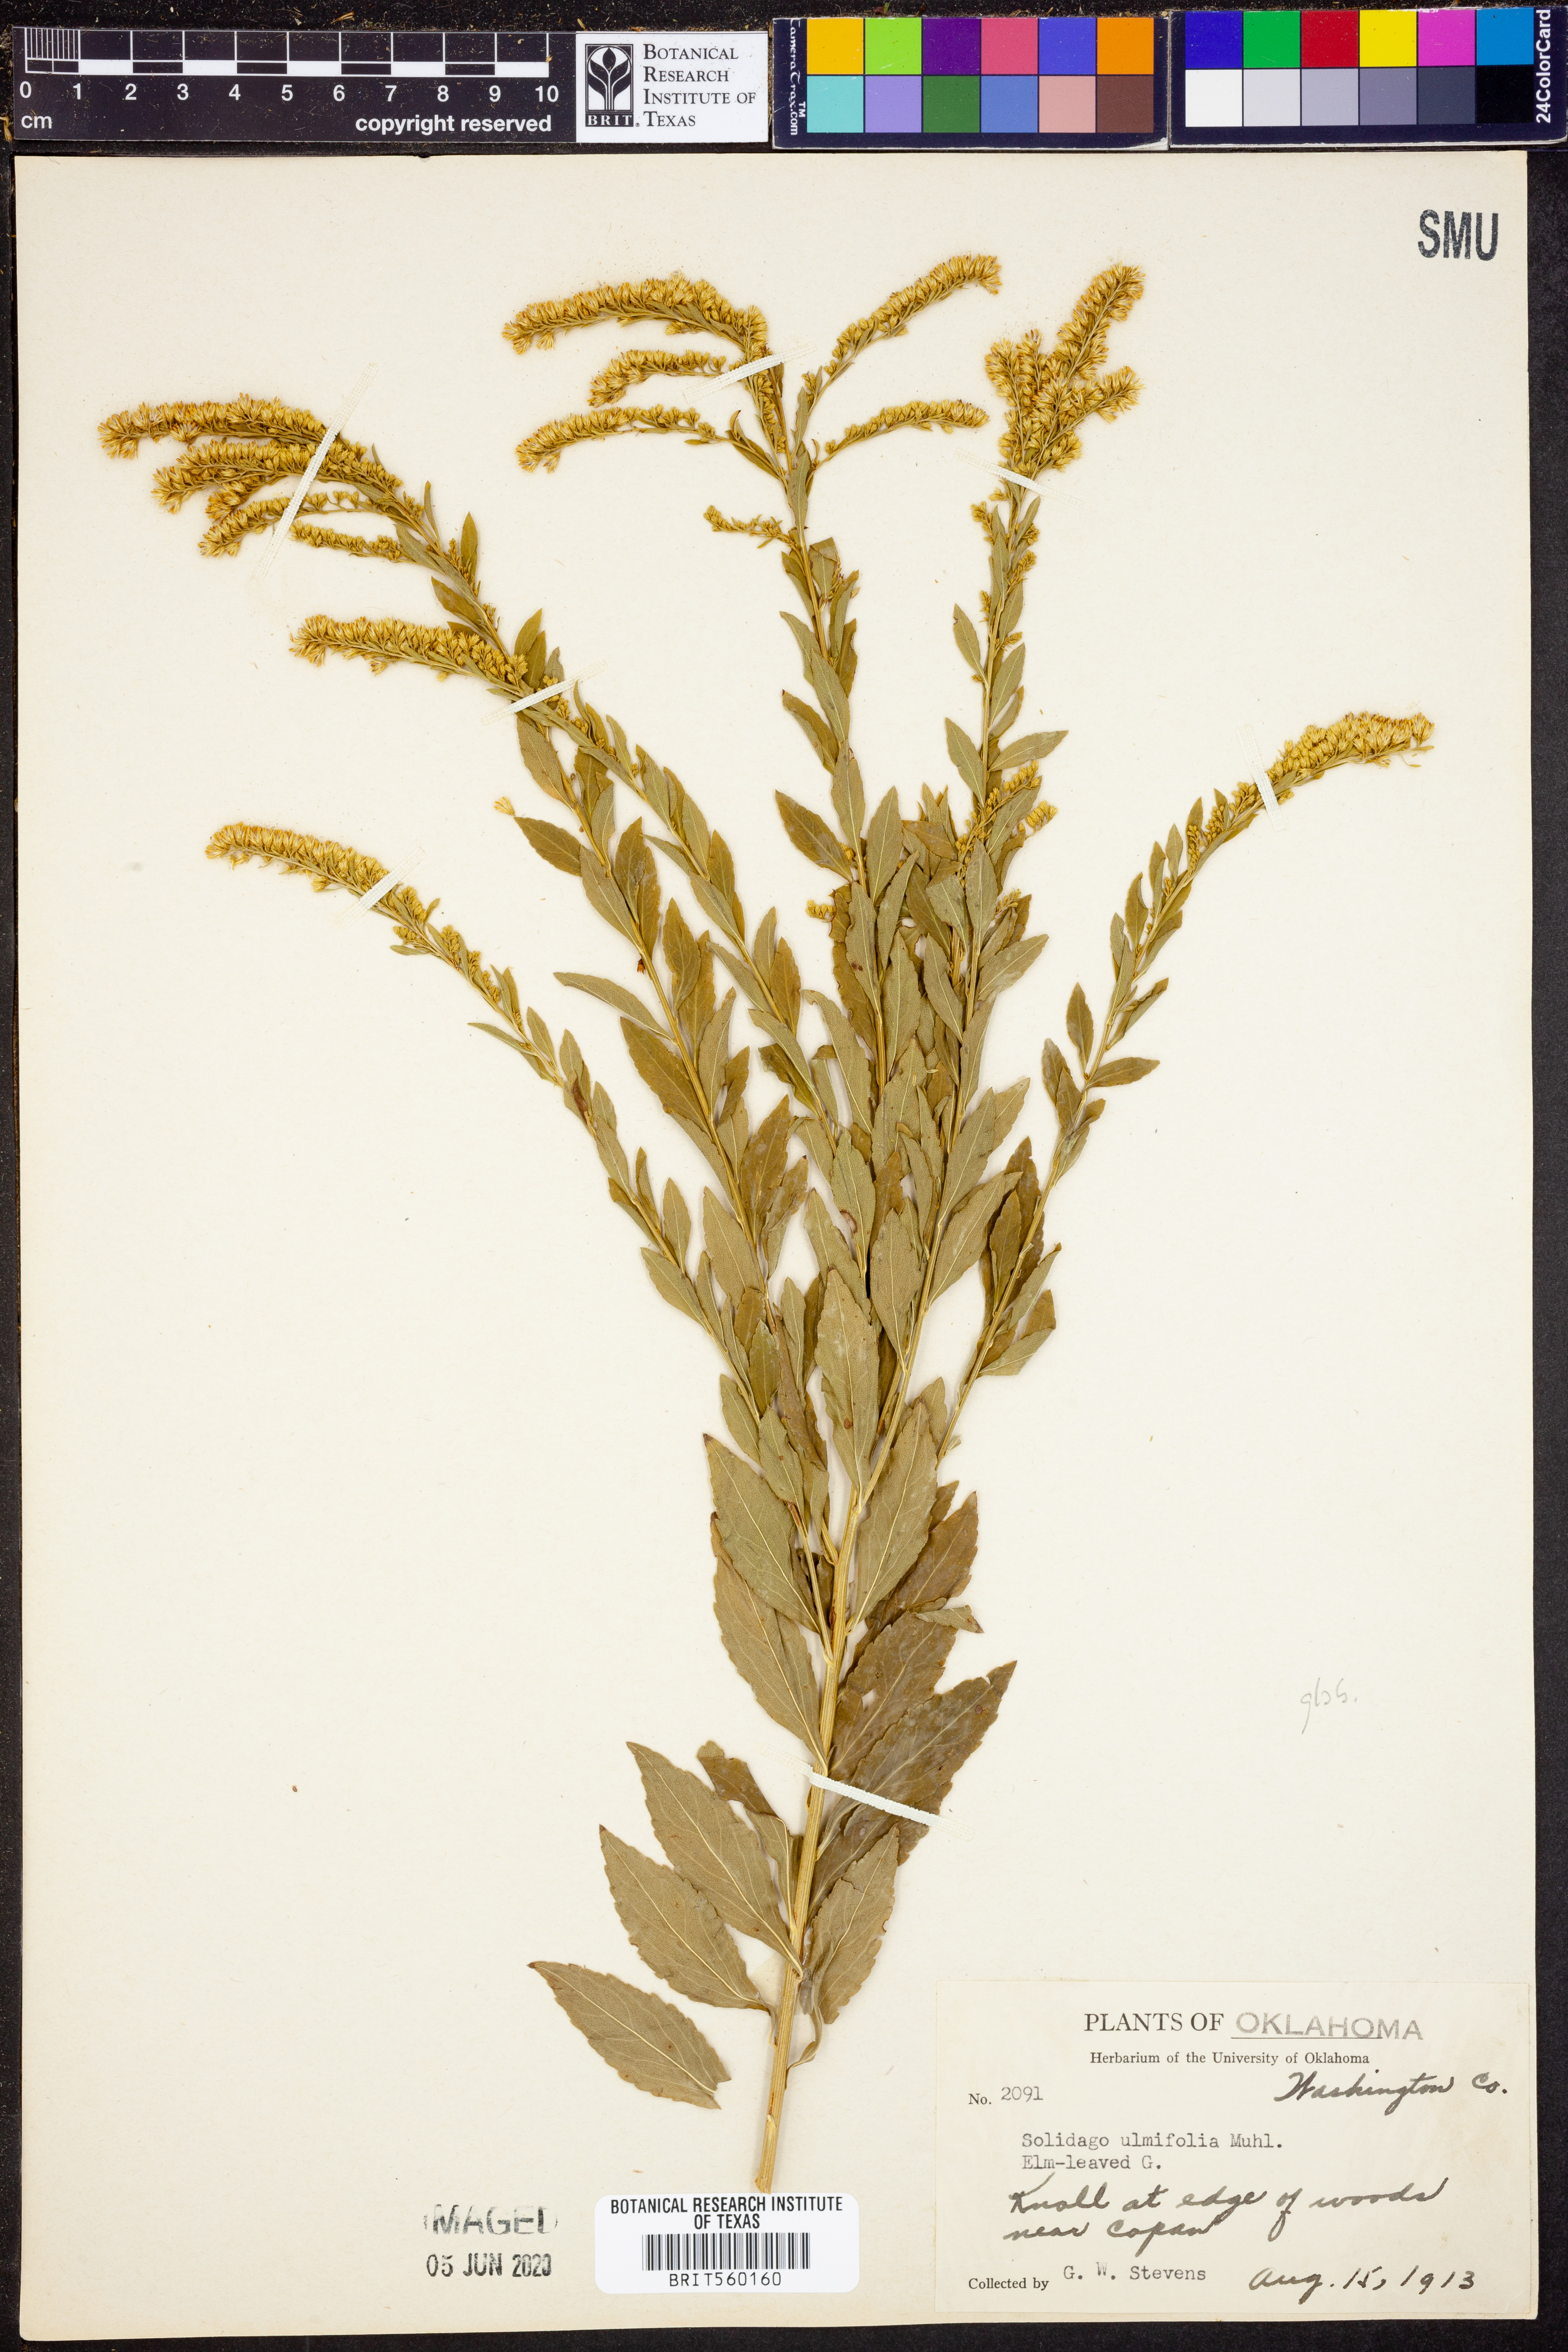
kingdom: Plantae
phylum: Tracheophyta
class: Magnoliopsida
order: Asterales
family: Asteraceae
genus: Solidago
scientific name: Solidago ulmifolia
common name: Elm-leaf goldenrod
